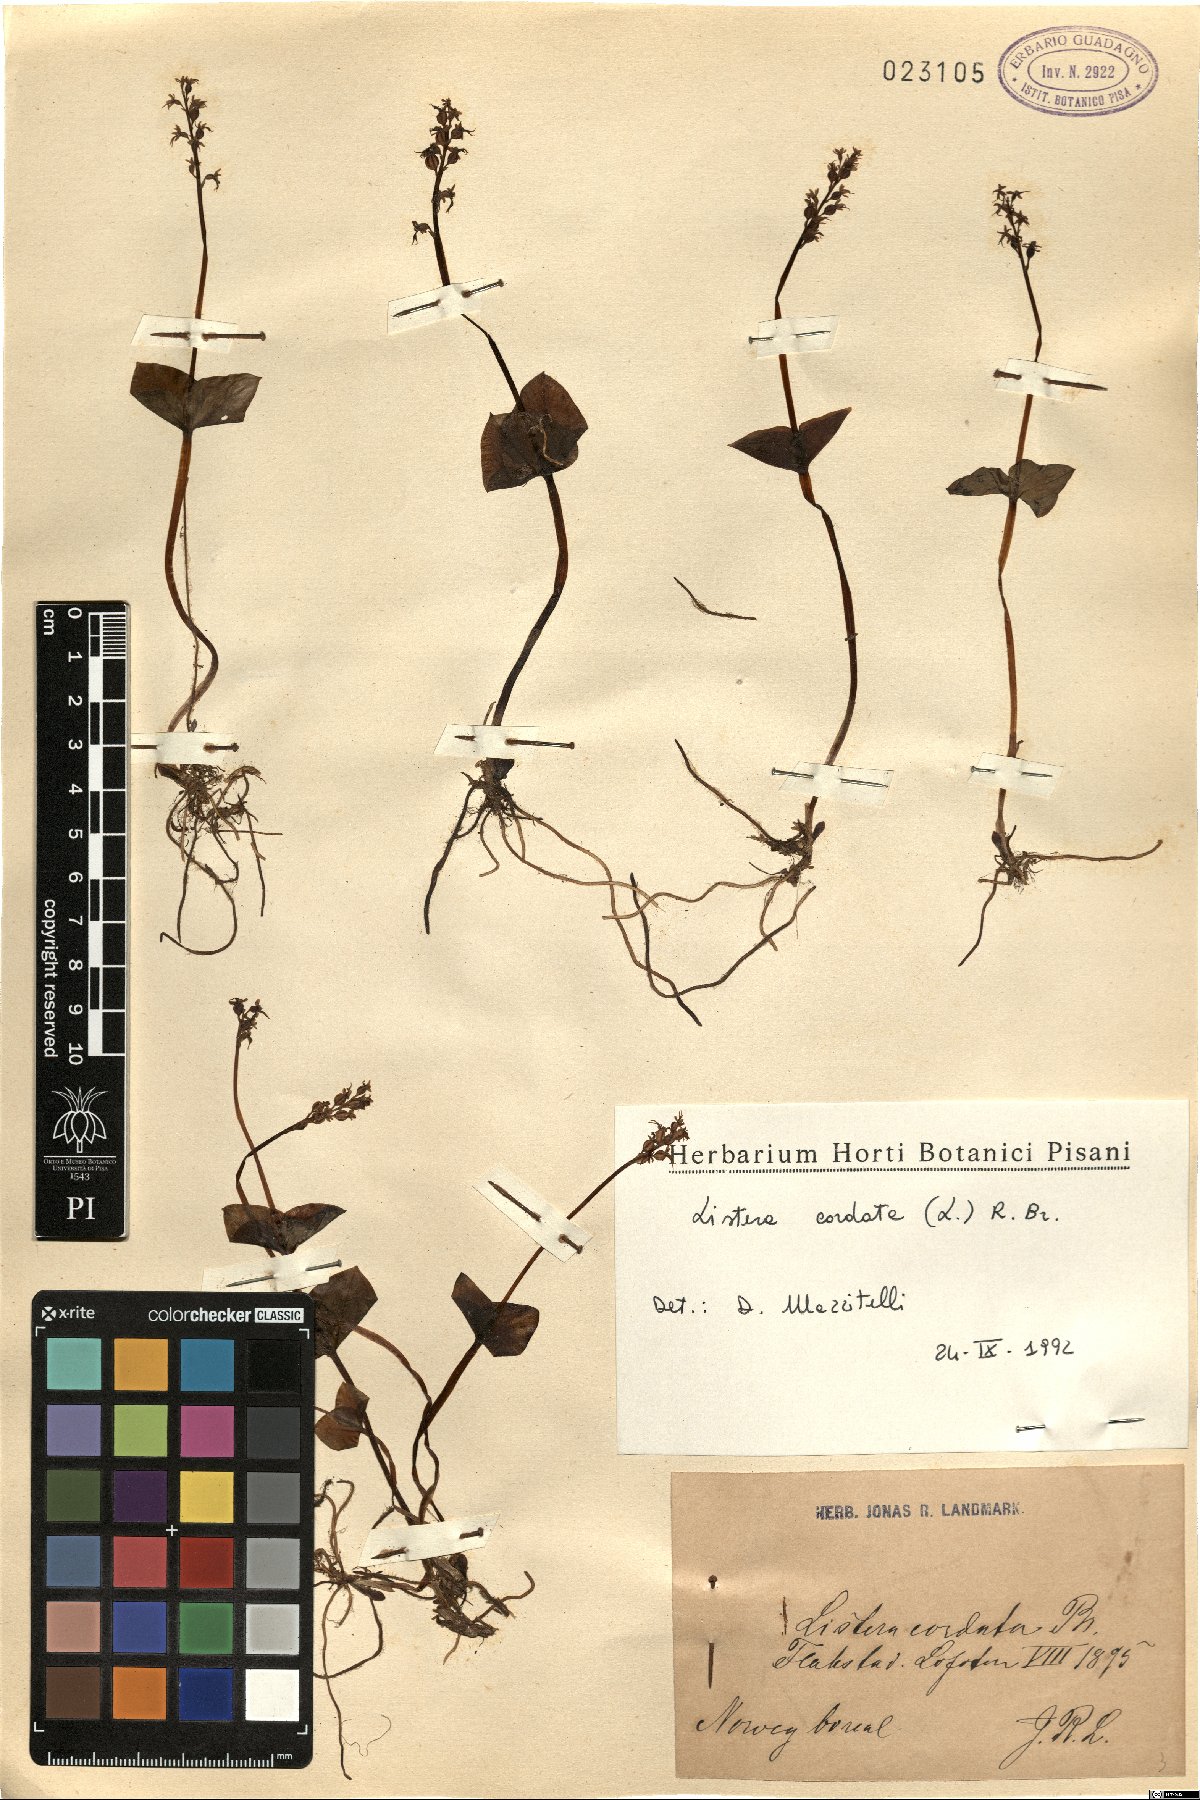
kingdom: Plantae
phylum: Tracheophyta
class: Liliopsida
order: Asparagales
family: Orchidaceae
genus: Neottia
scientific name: Neottia cordata
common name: Lesser twayblade
